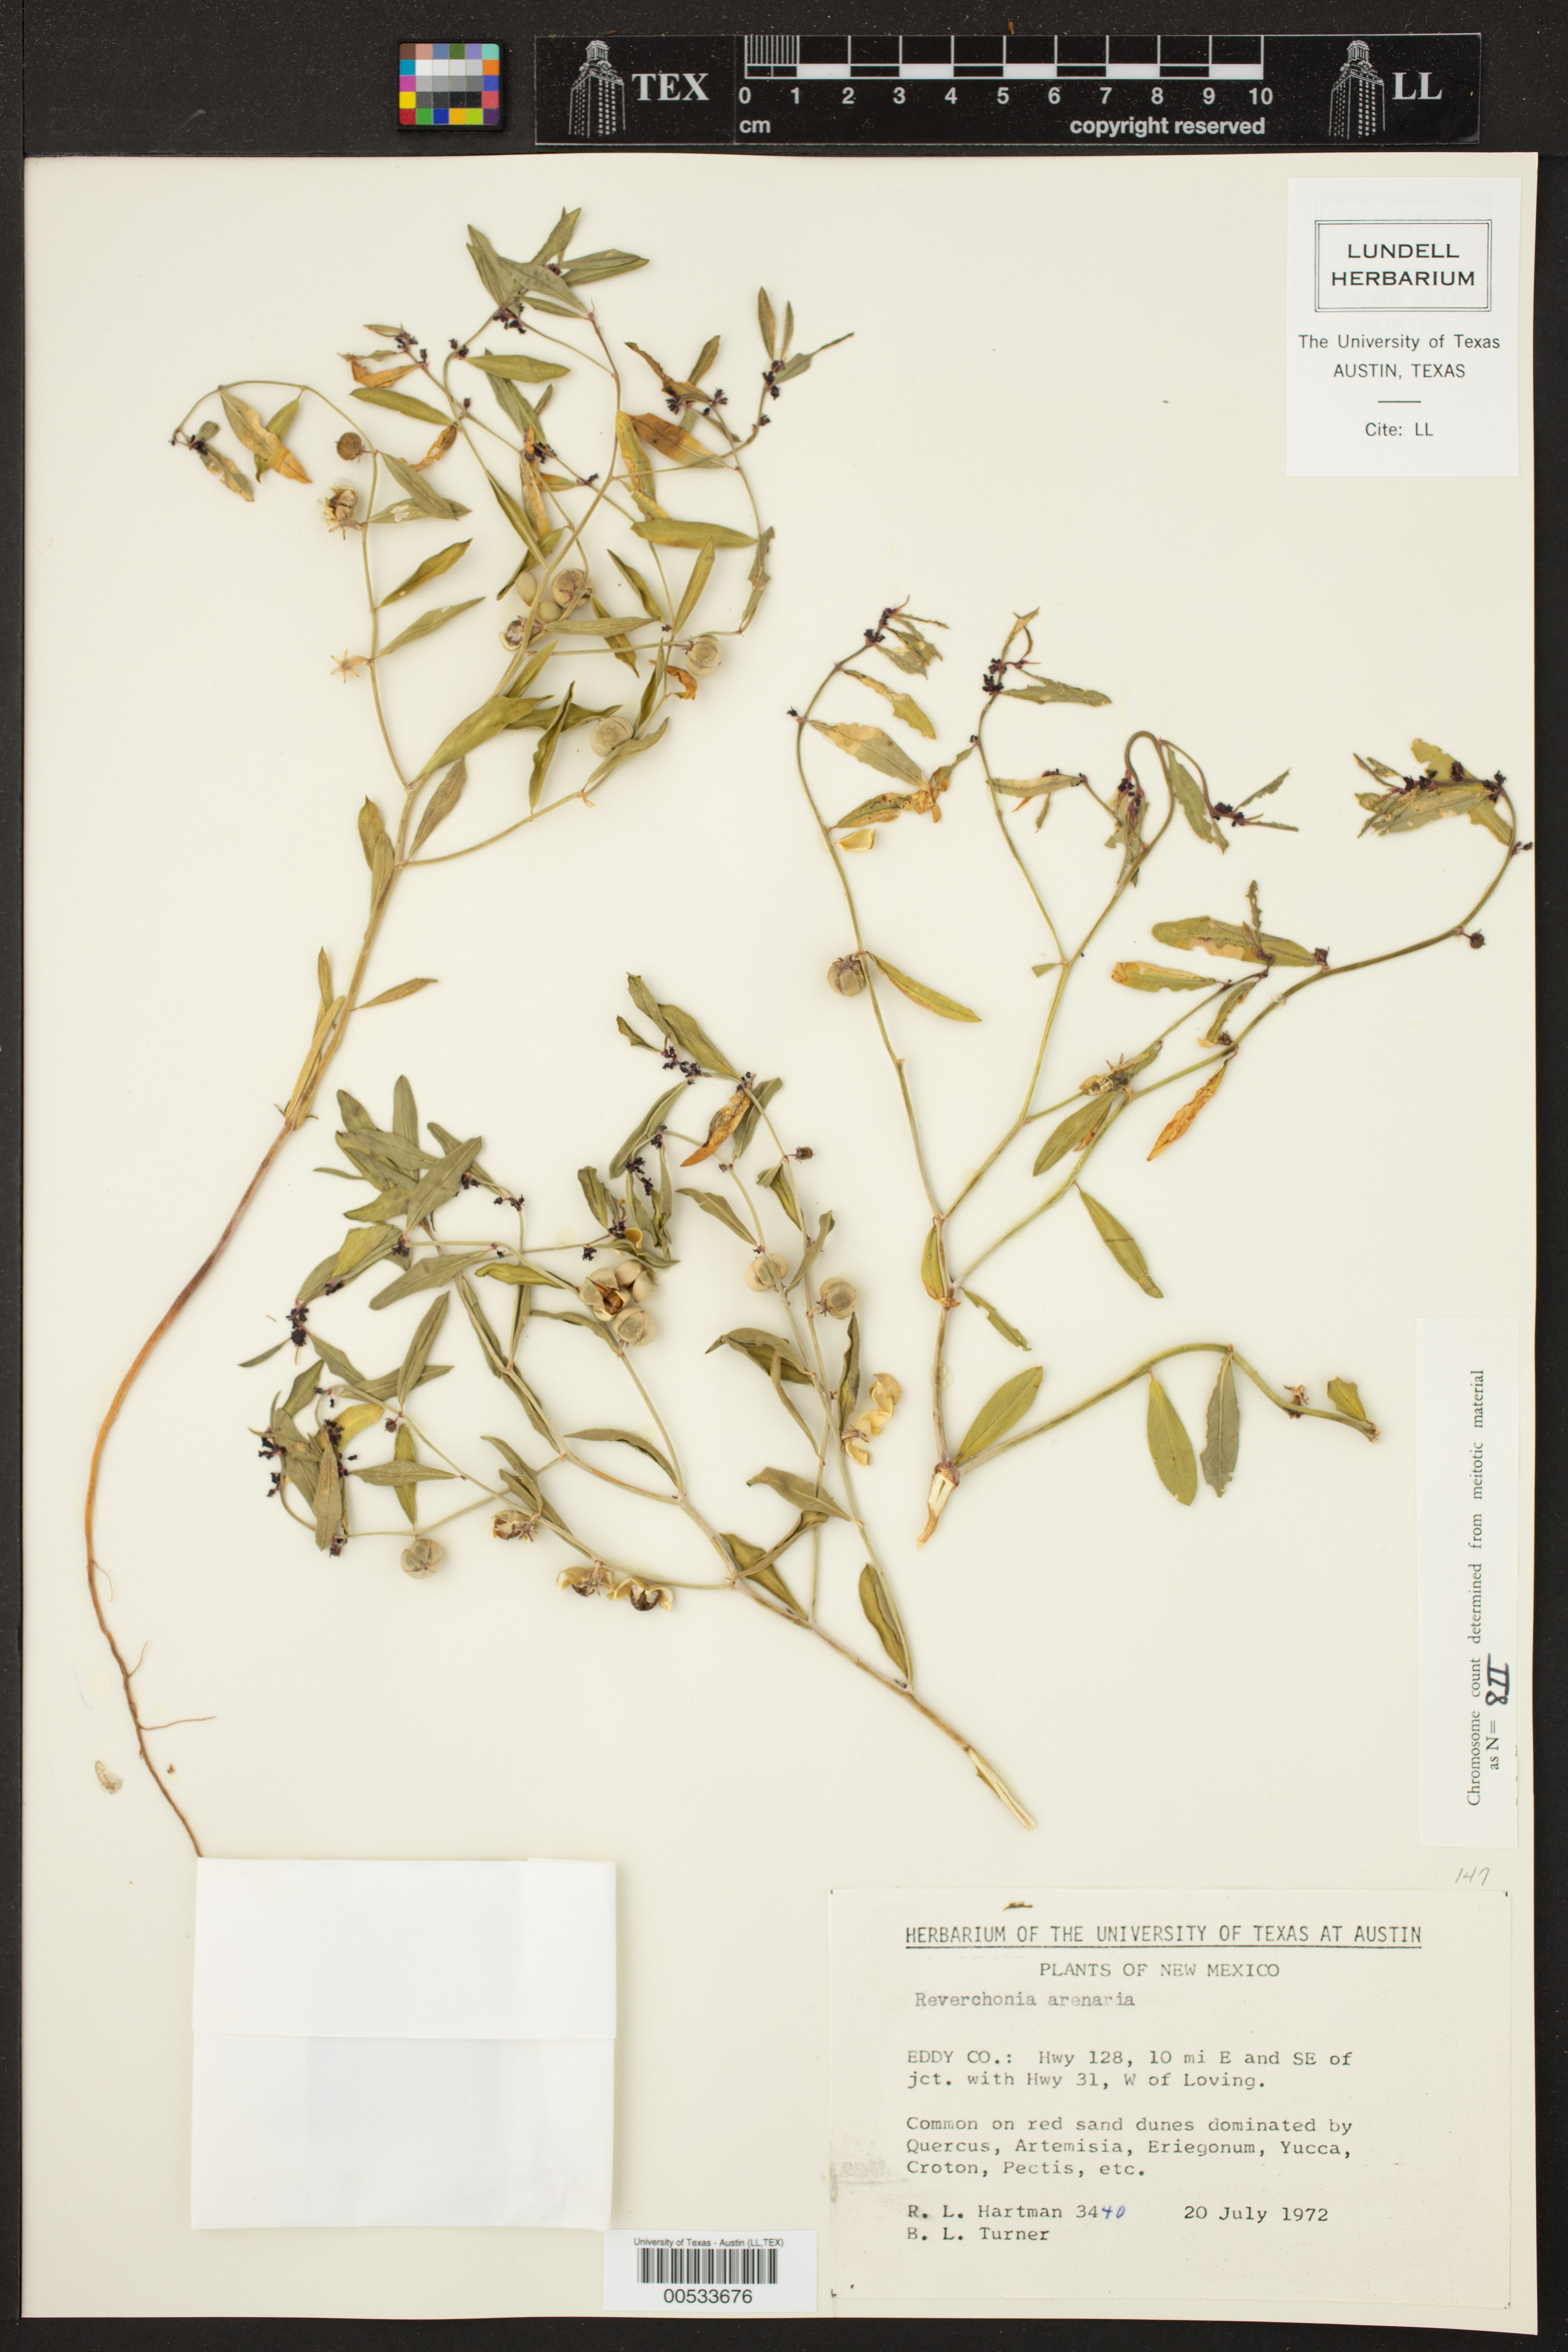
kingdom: Plantae
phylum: Tracheophyta
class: Magnoliopsida
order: Malpighiales
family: Phyllanthaceae
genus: Phyllanthus
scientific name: Phyllanthus warnockii
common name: Sand reverchonia
